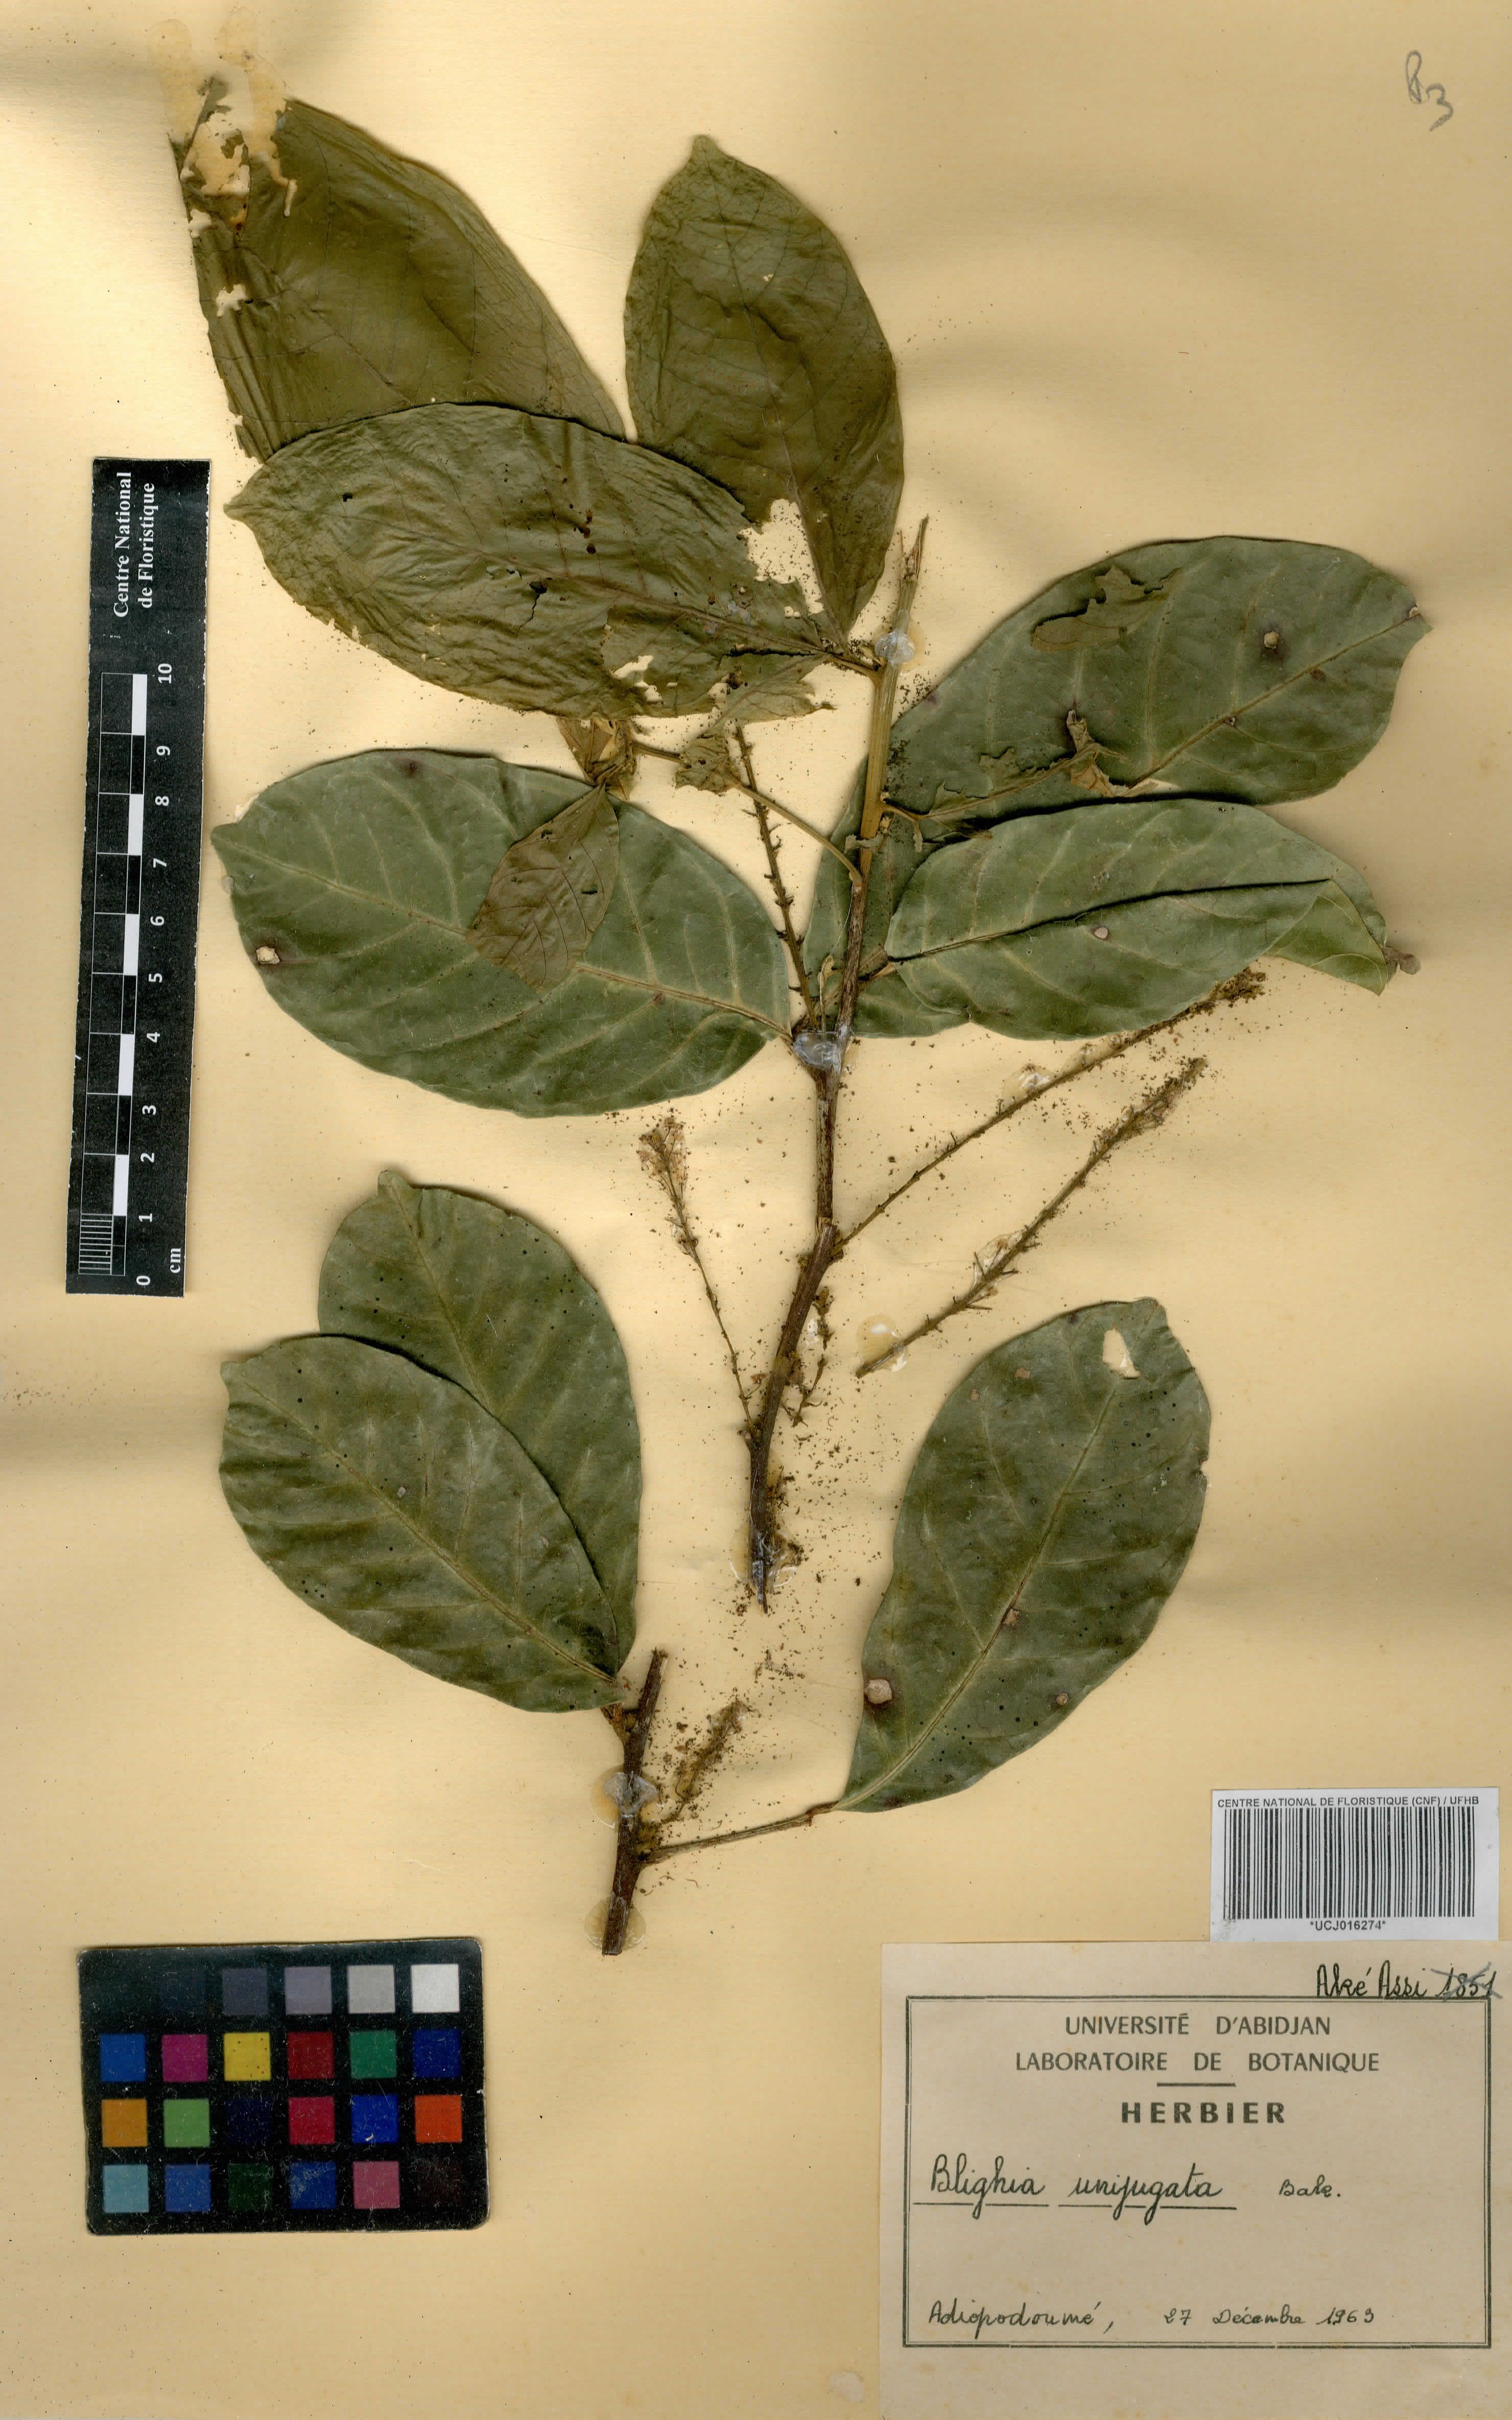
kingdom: Plantae
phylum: Tracheophyta
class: Magnoliopsida
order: Sapindales
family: Sapindaceae
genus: Blighia
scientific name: Blighia unijugata
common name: Triangle tops
